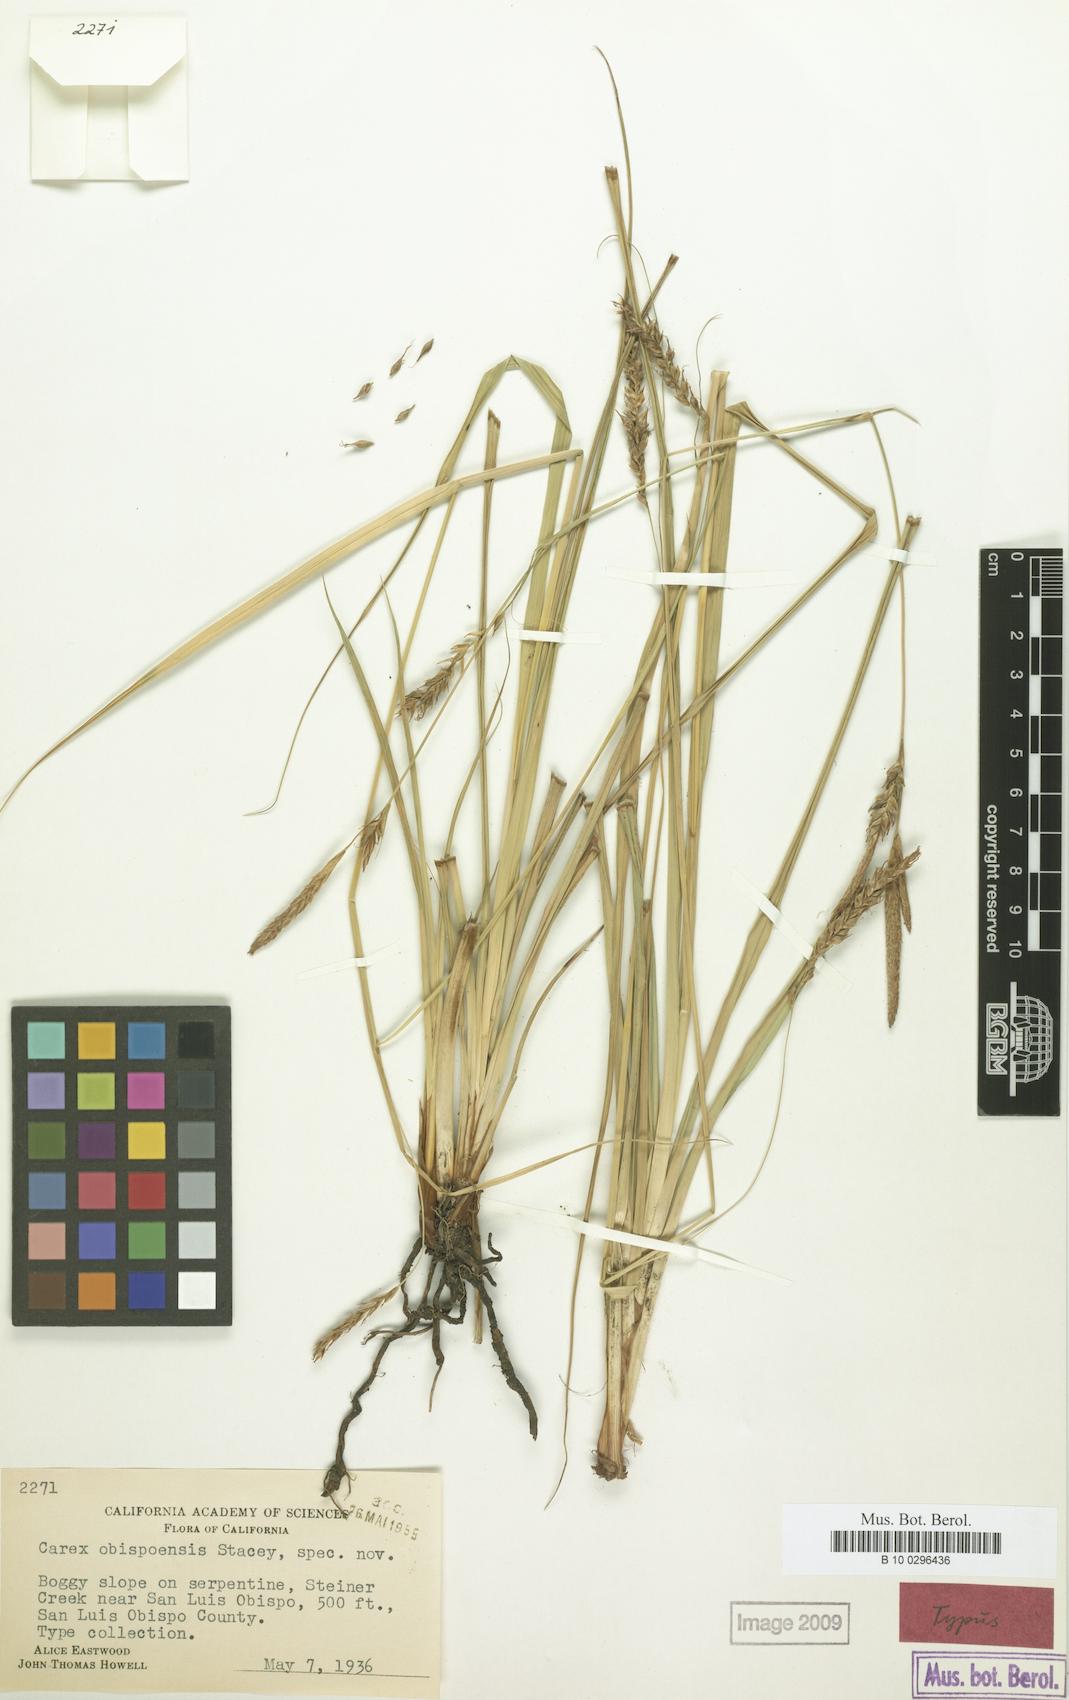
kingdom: Plantae
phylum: Tracheophyta
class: Liliopsida
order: Poales
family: Cyperaceae
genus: Carex
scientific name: Carex obispoensis
